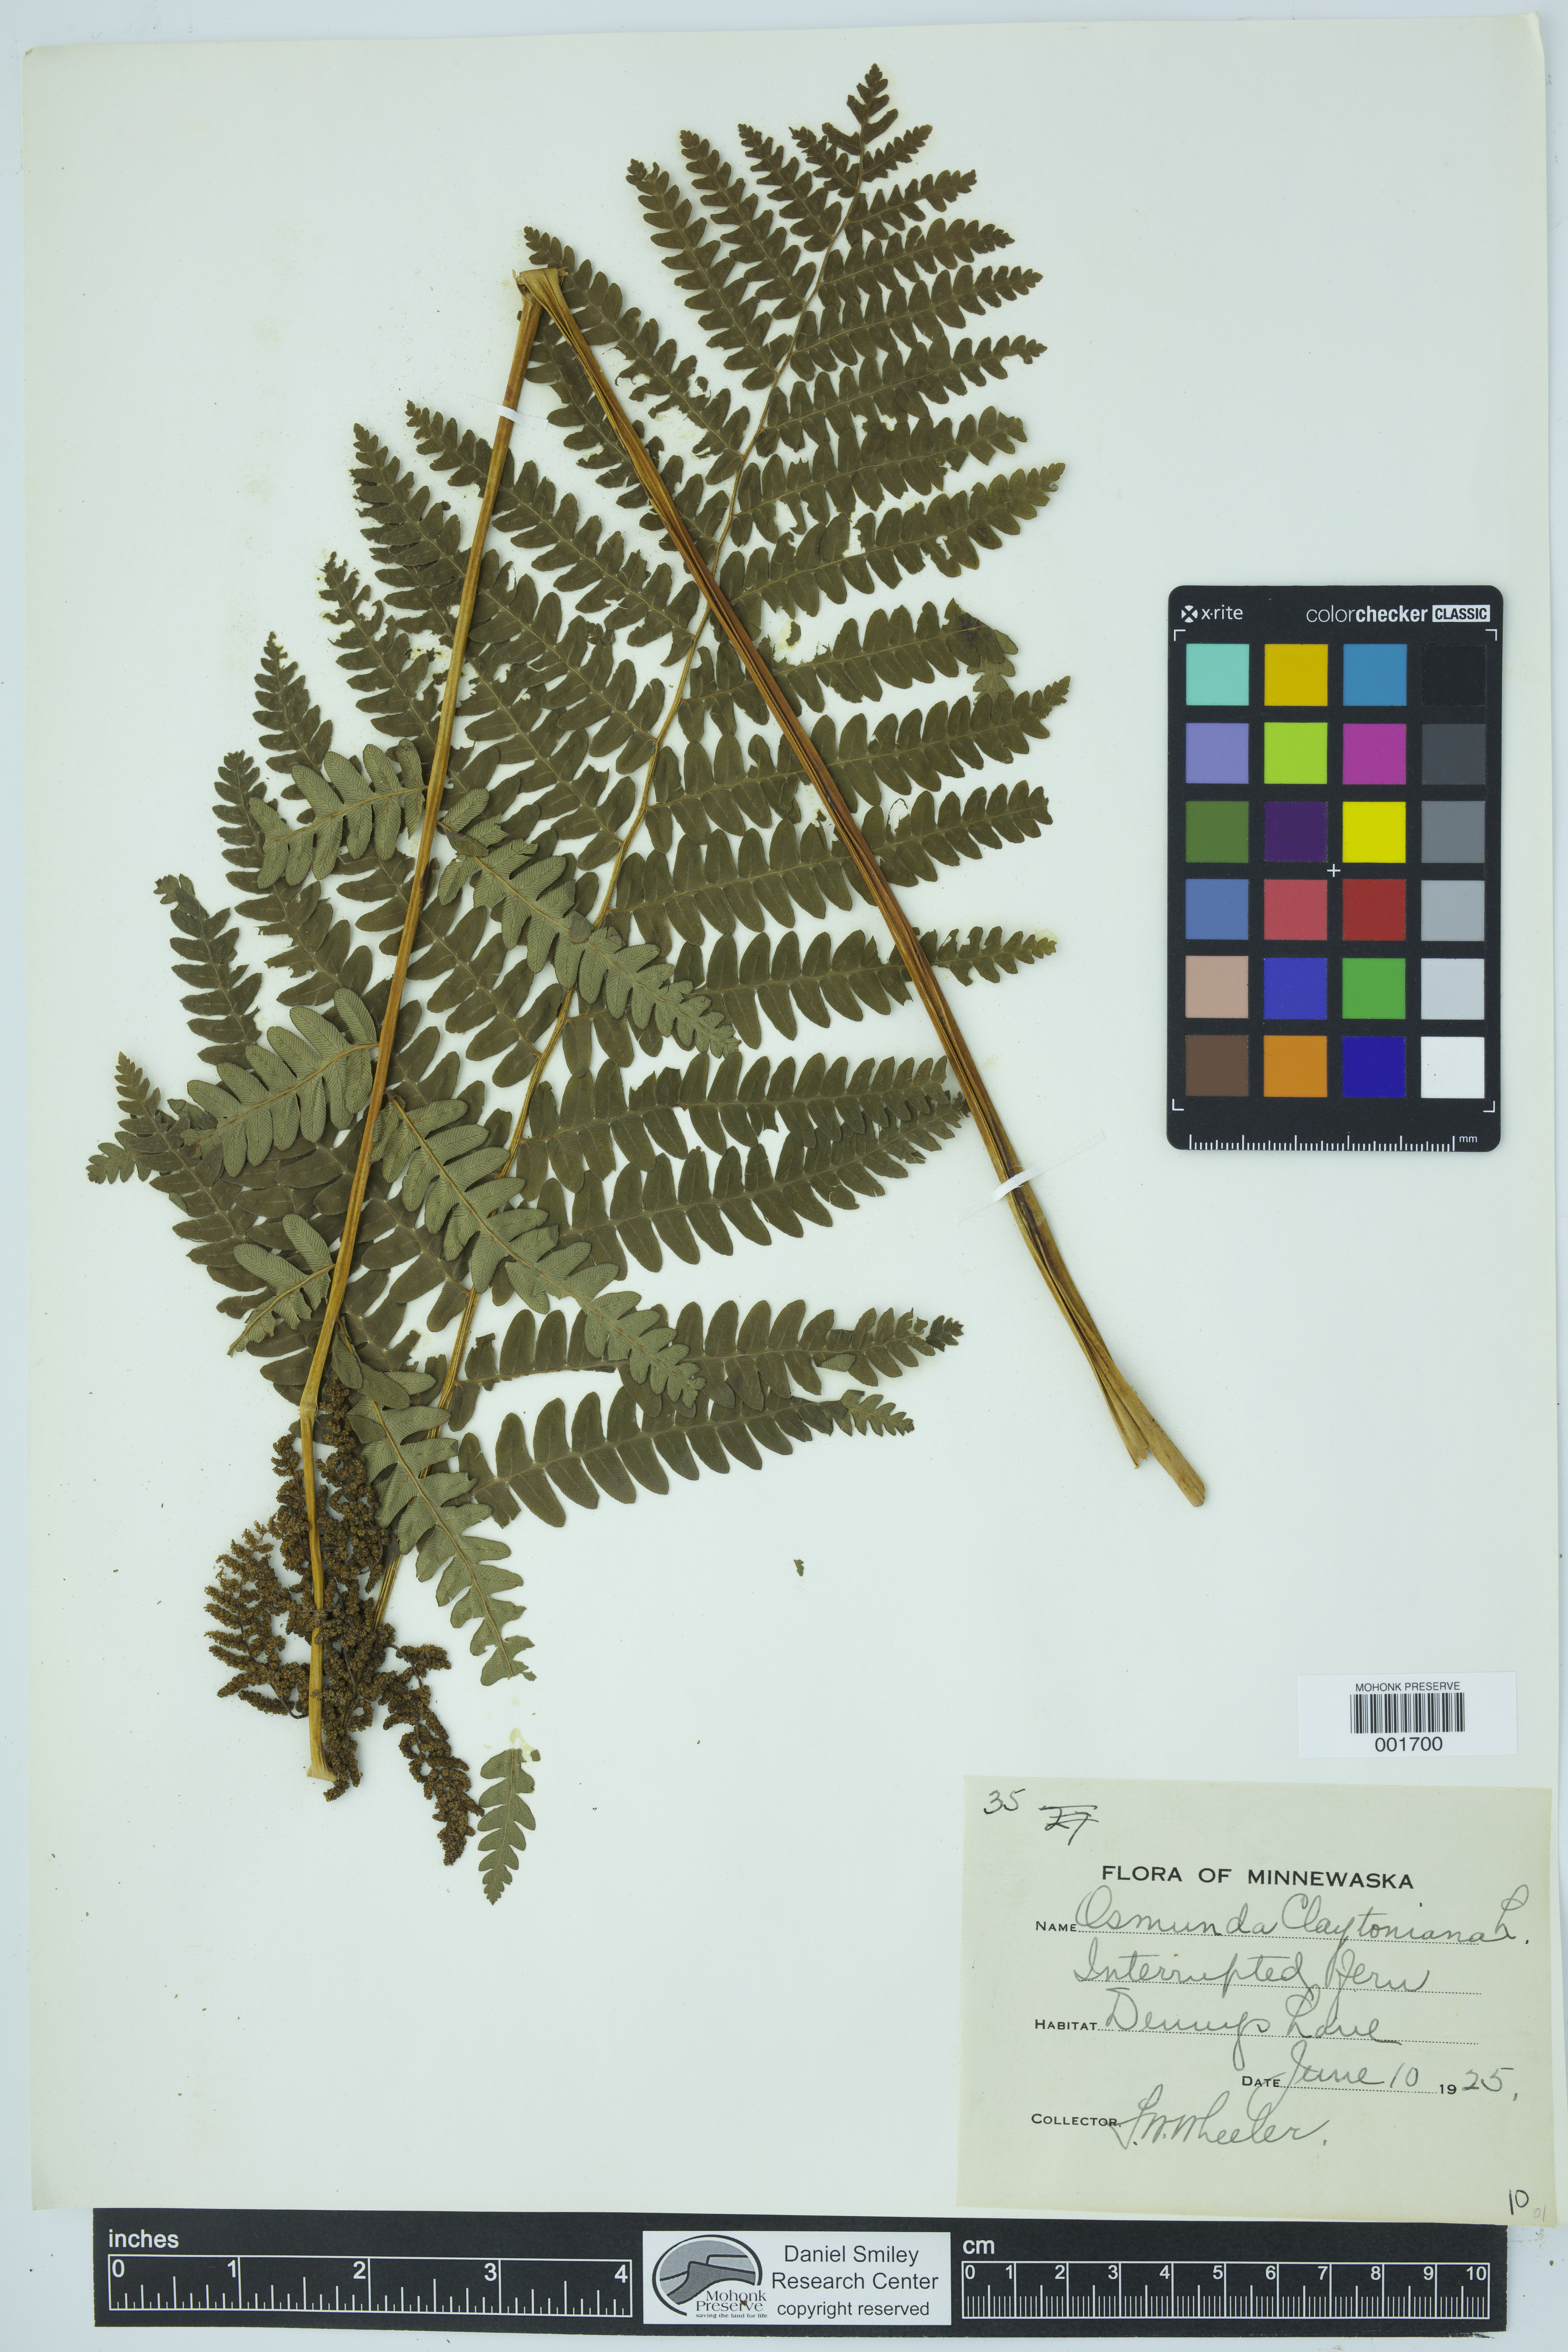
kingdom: Plantae
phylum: Tracheophyta
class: Polypodiopsida
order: Osmundales
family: Osmundaceae
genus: Claytosmunda
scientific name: Claytosmunda claytoniana
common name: Clayton's fern
